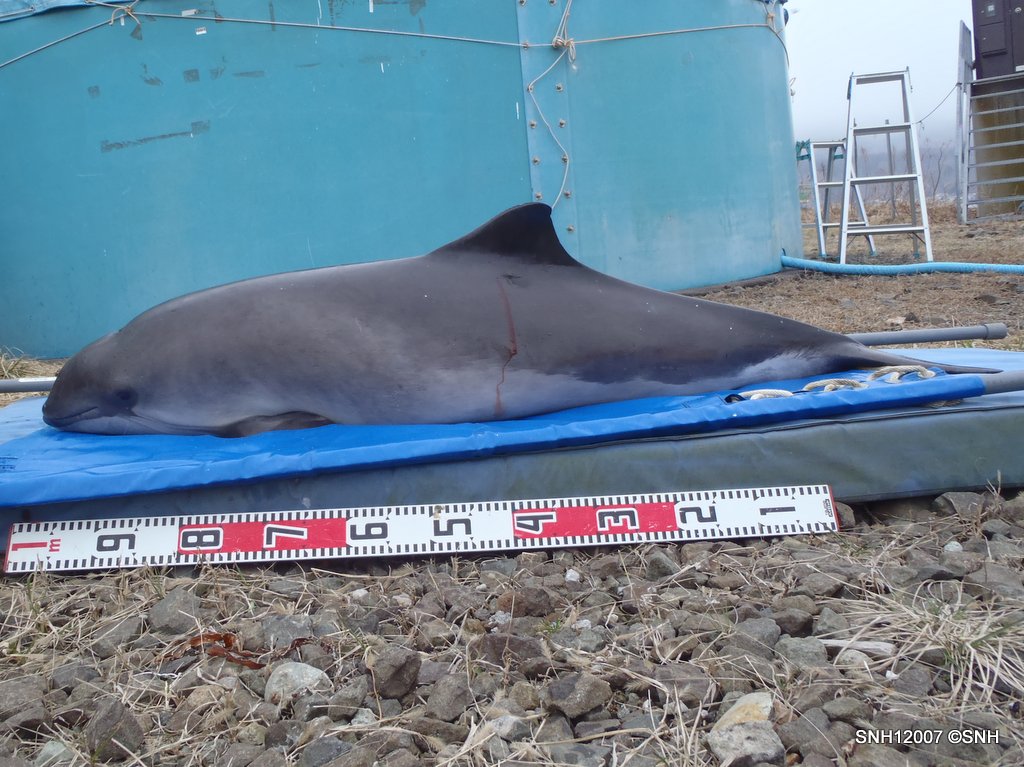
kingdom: Animalia
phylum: Chordata
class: Mammalia
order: Cetacea
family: Phocoenidae
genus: Phocoena
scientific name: Phocoena phocoena
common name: Harbour porpoise
